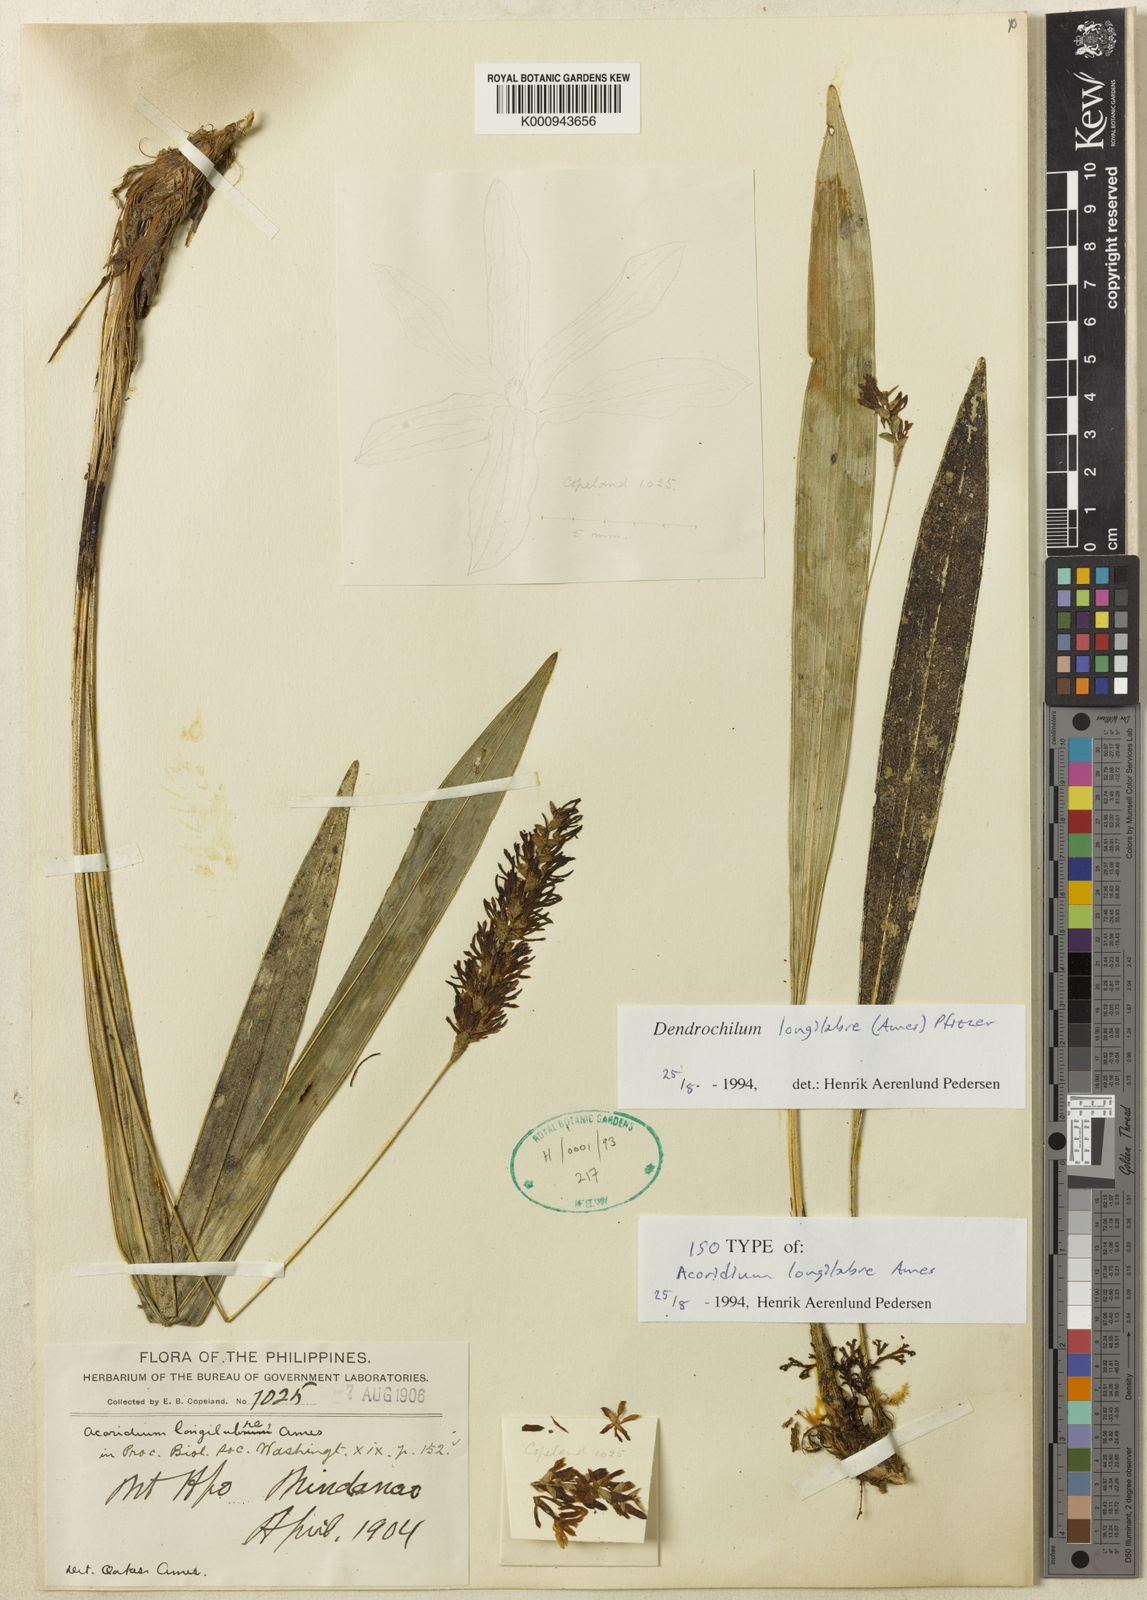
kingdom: Plantae
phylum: Tracheophyta
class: Liliopsida
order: Asparagales
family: Orchidaceae
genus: Coelogyne
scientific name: Coelogyne longilabellata
